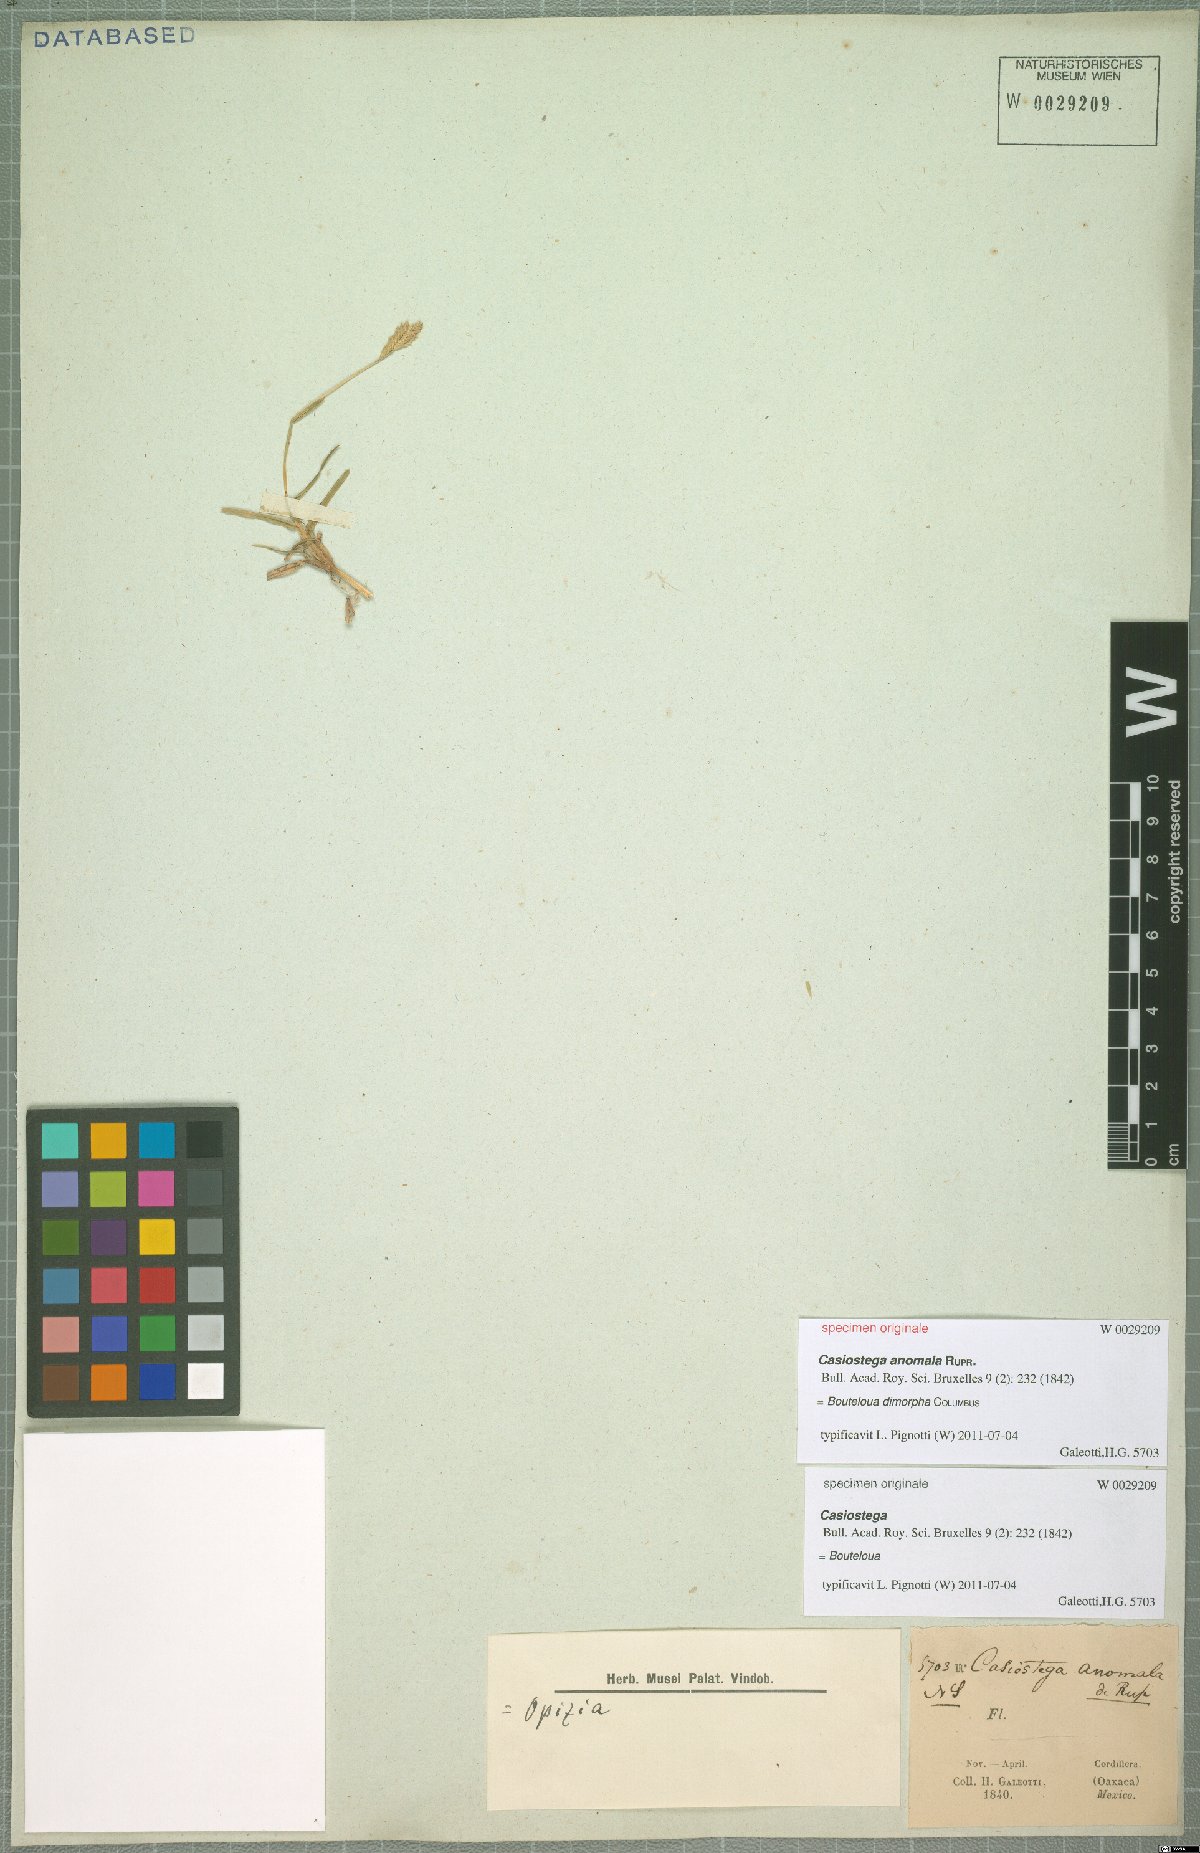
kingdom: Plantae
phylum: Tracheophyta
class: Liliopsida
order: Poales
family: Poaceae
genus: Bouteloua
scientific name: Bouteloua dimorpha
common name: Acapulco grass
